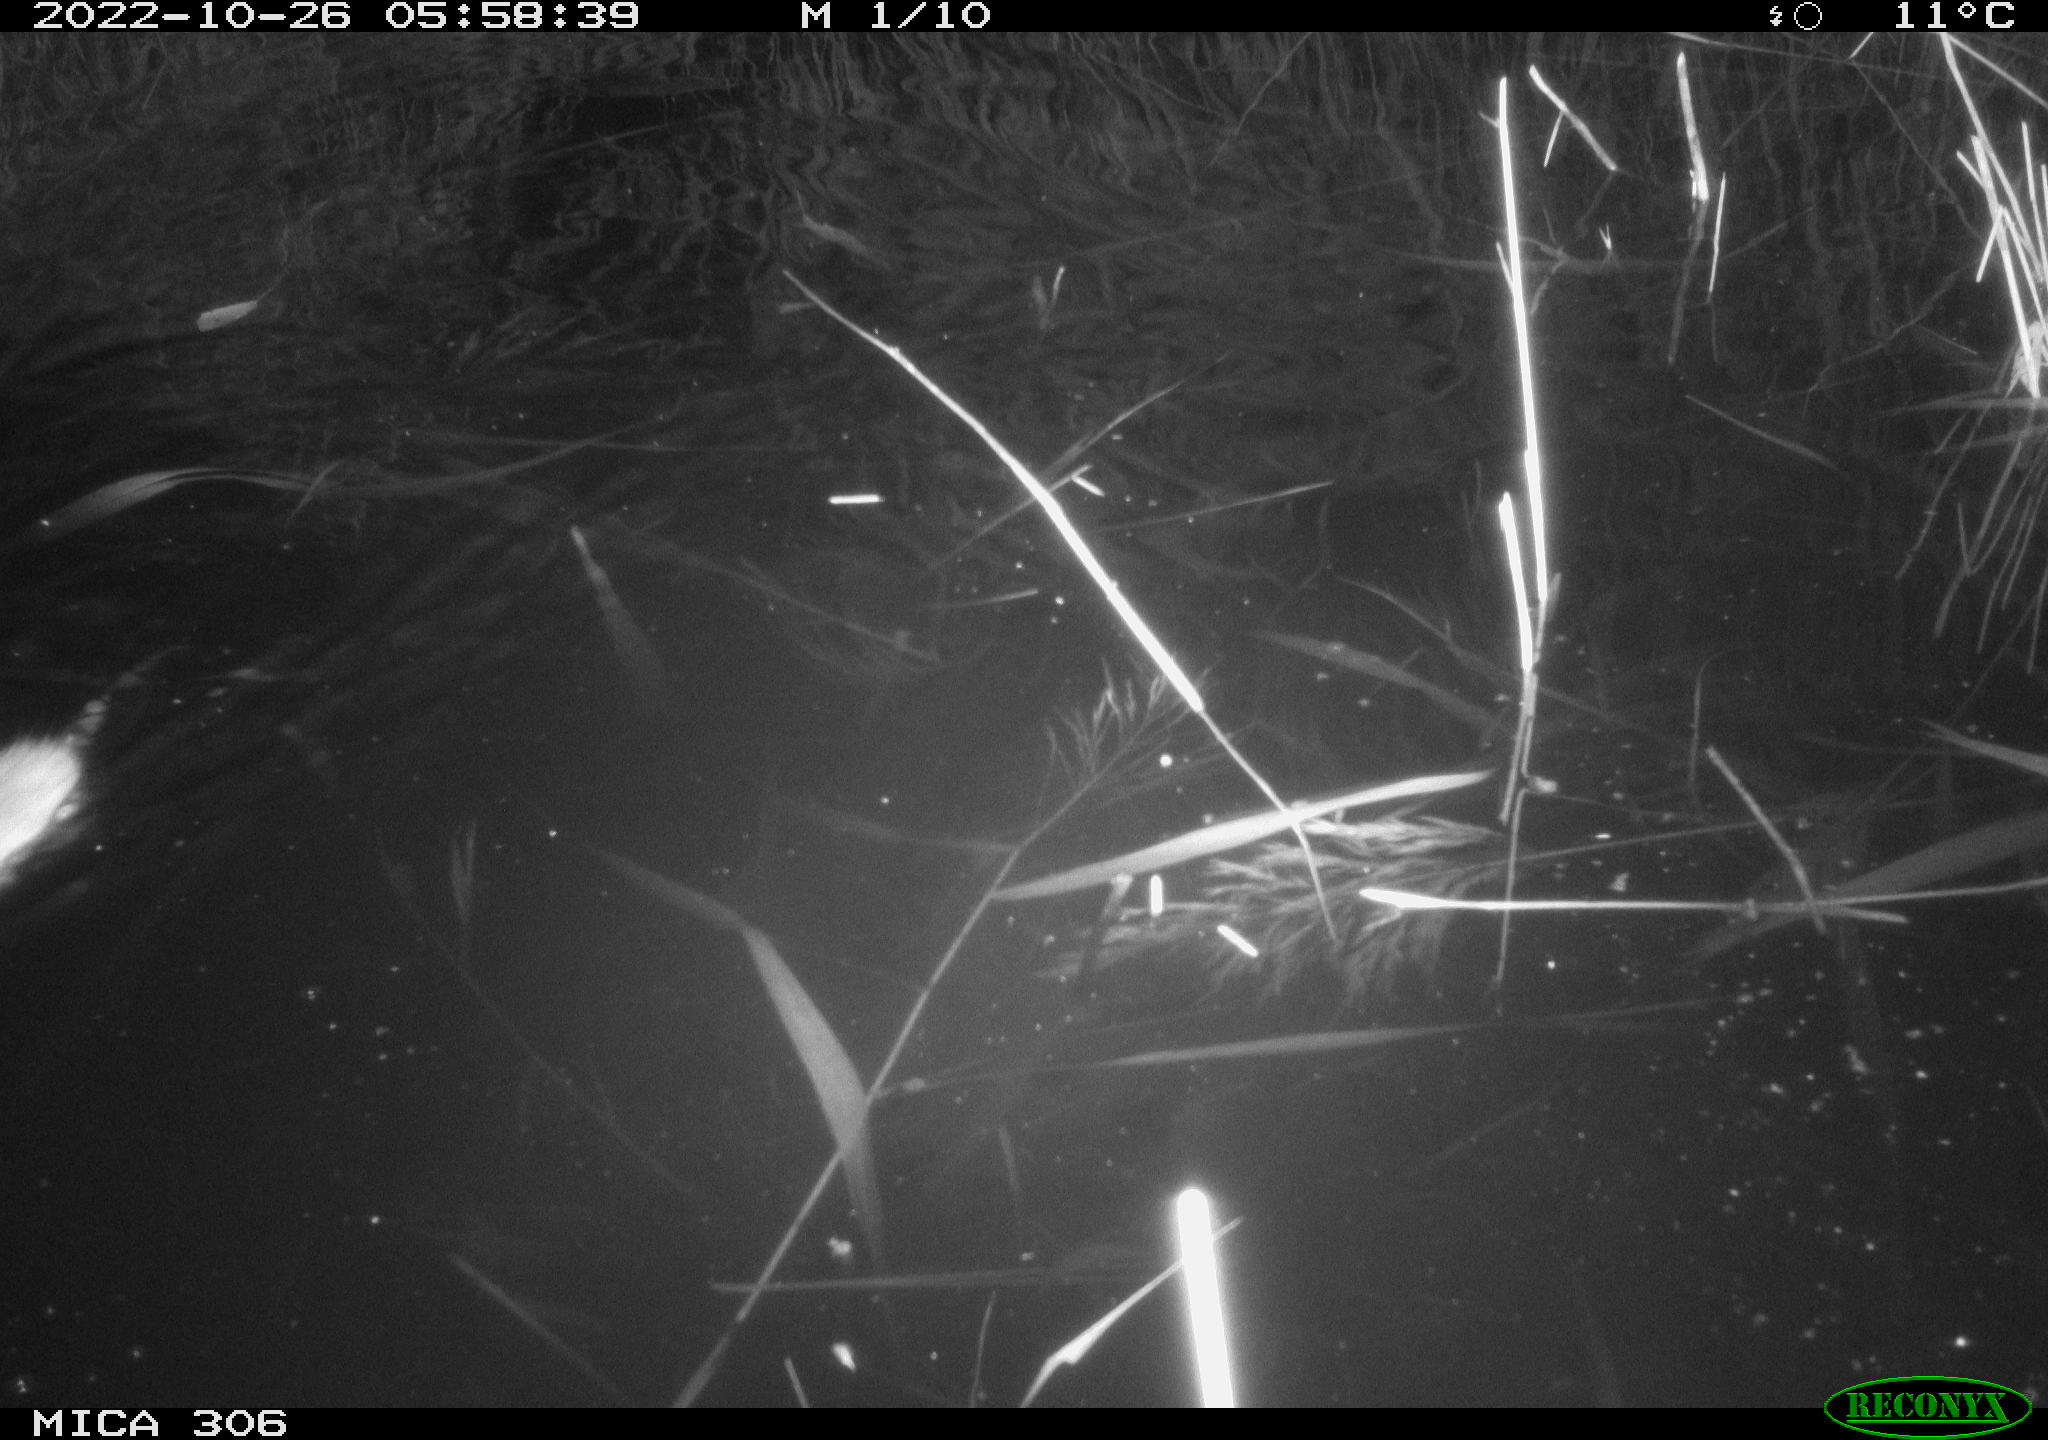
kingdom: Animalia
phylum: Chordata
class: Mammalia
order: Rodentia
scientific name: Rodentia
